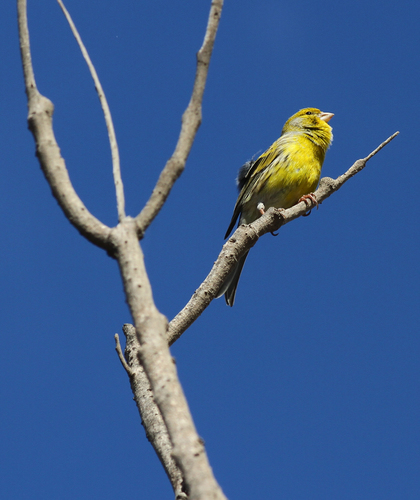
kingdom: Animalia
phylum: Chordata
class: Aves
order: Passeriformes
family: Fringillidae
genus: Serinus
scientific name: Serinus canaria
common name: Atlantic canary
